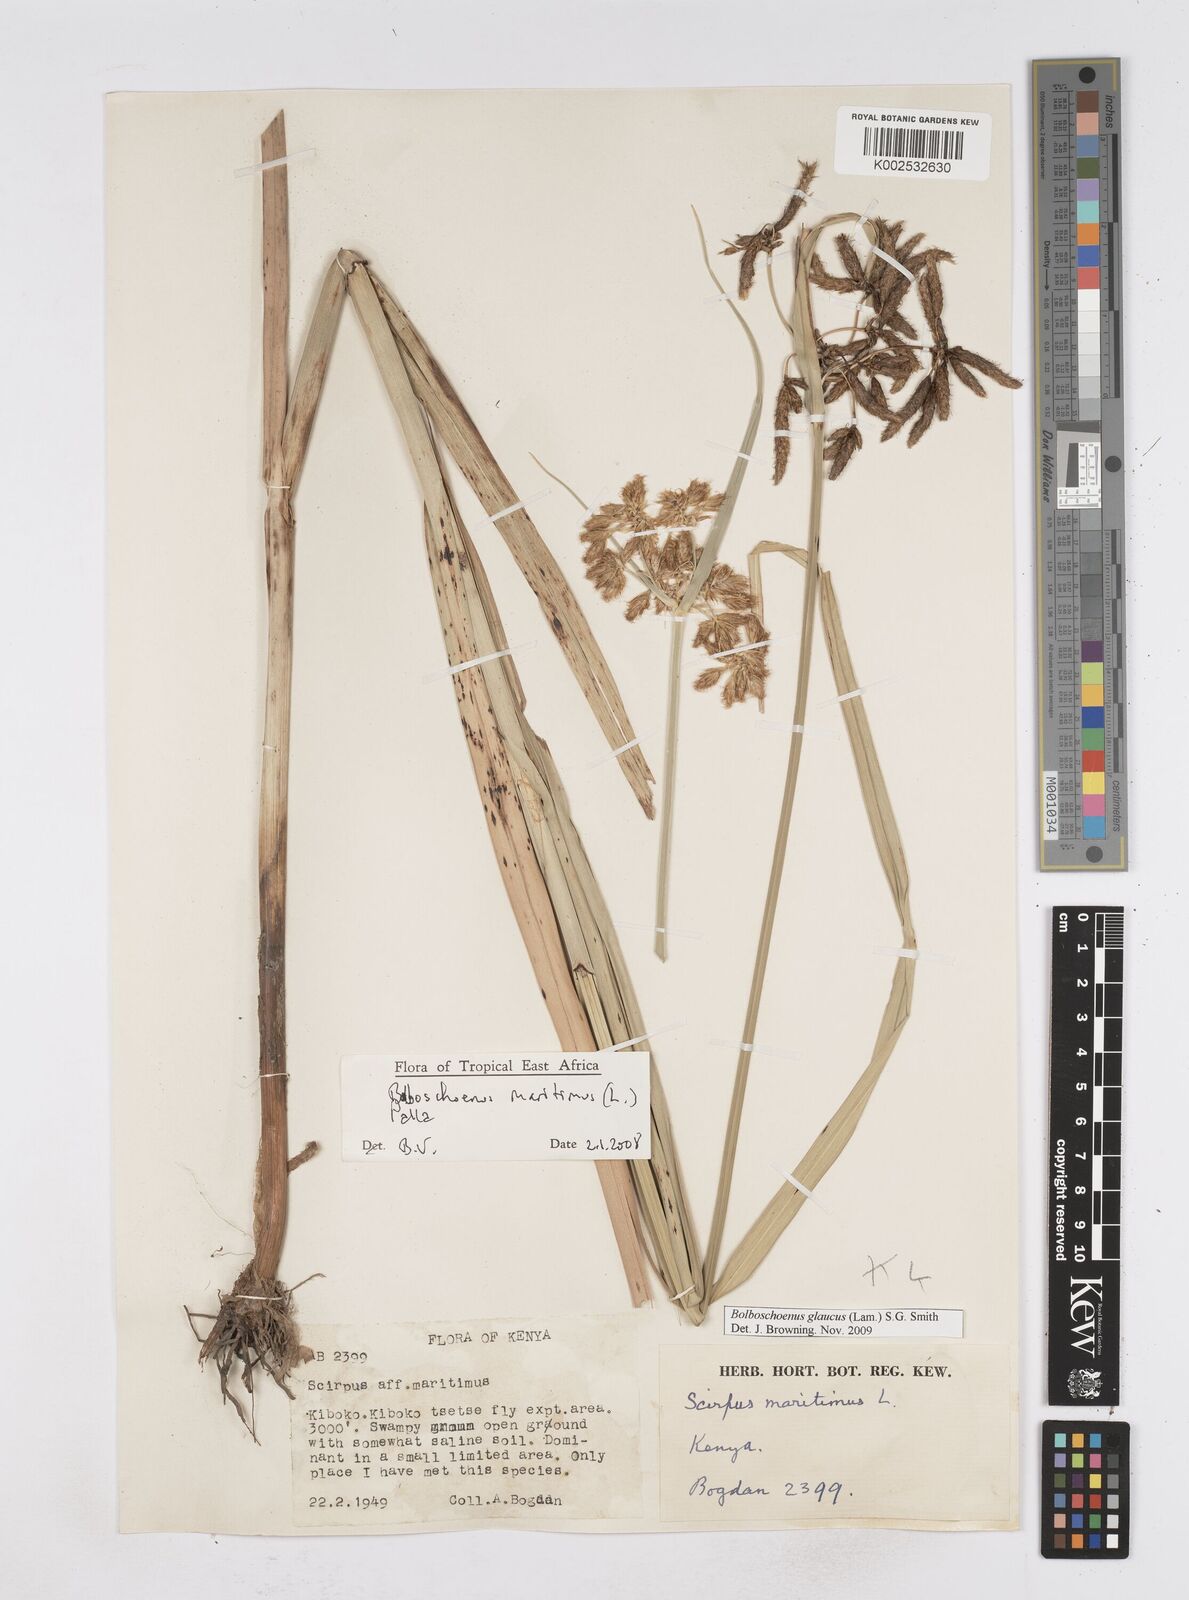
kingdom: Plantae
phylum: Tracheophyta
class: Liliopsida
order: Poales
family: Cyperaceae
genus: Bolboschoenus
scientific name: Bolboschoenus glaucus
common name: Tuberous bulrush
